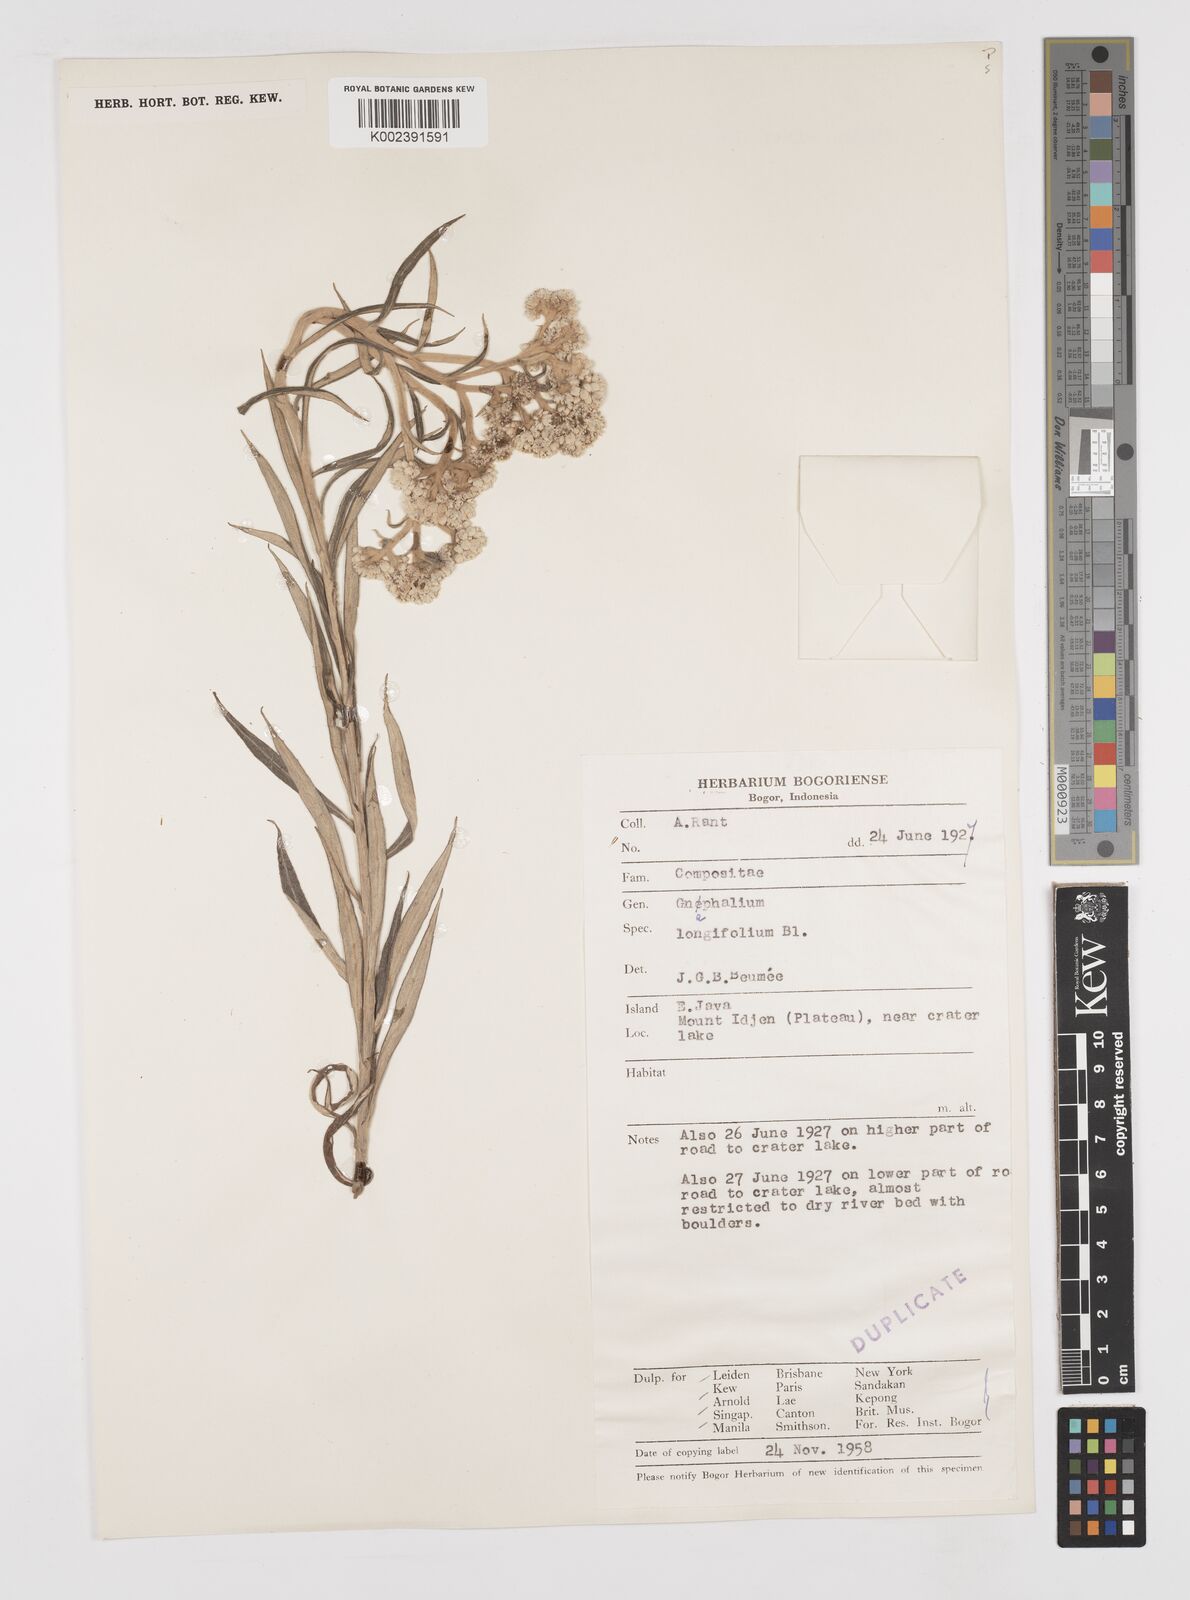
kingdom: Plantae
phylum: Tracheophyta
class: Magnoliopsida
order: Asterales
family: Asteraceae
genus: Anaphalis
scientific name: Anaphalis longifolia
